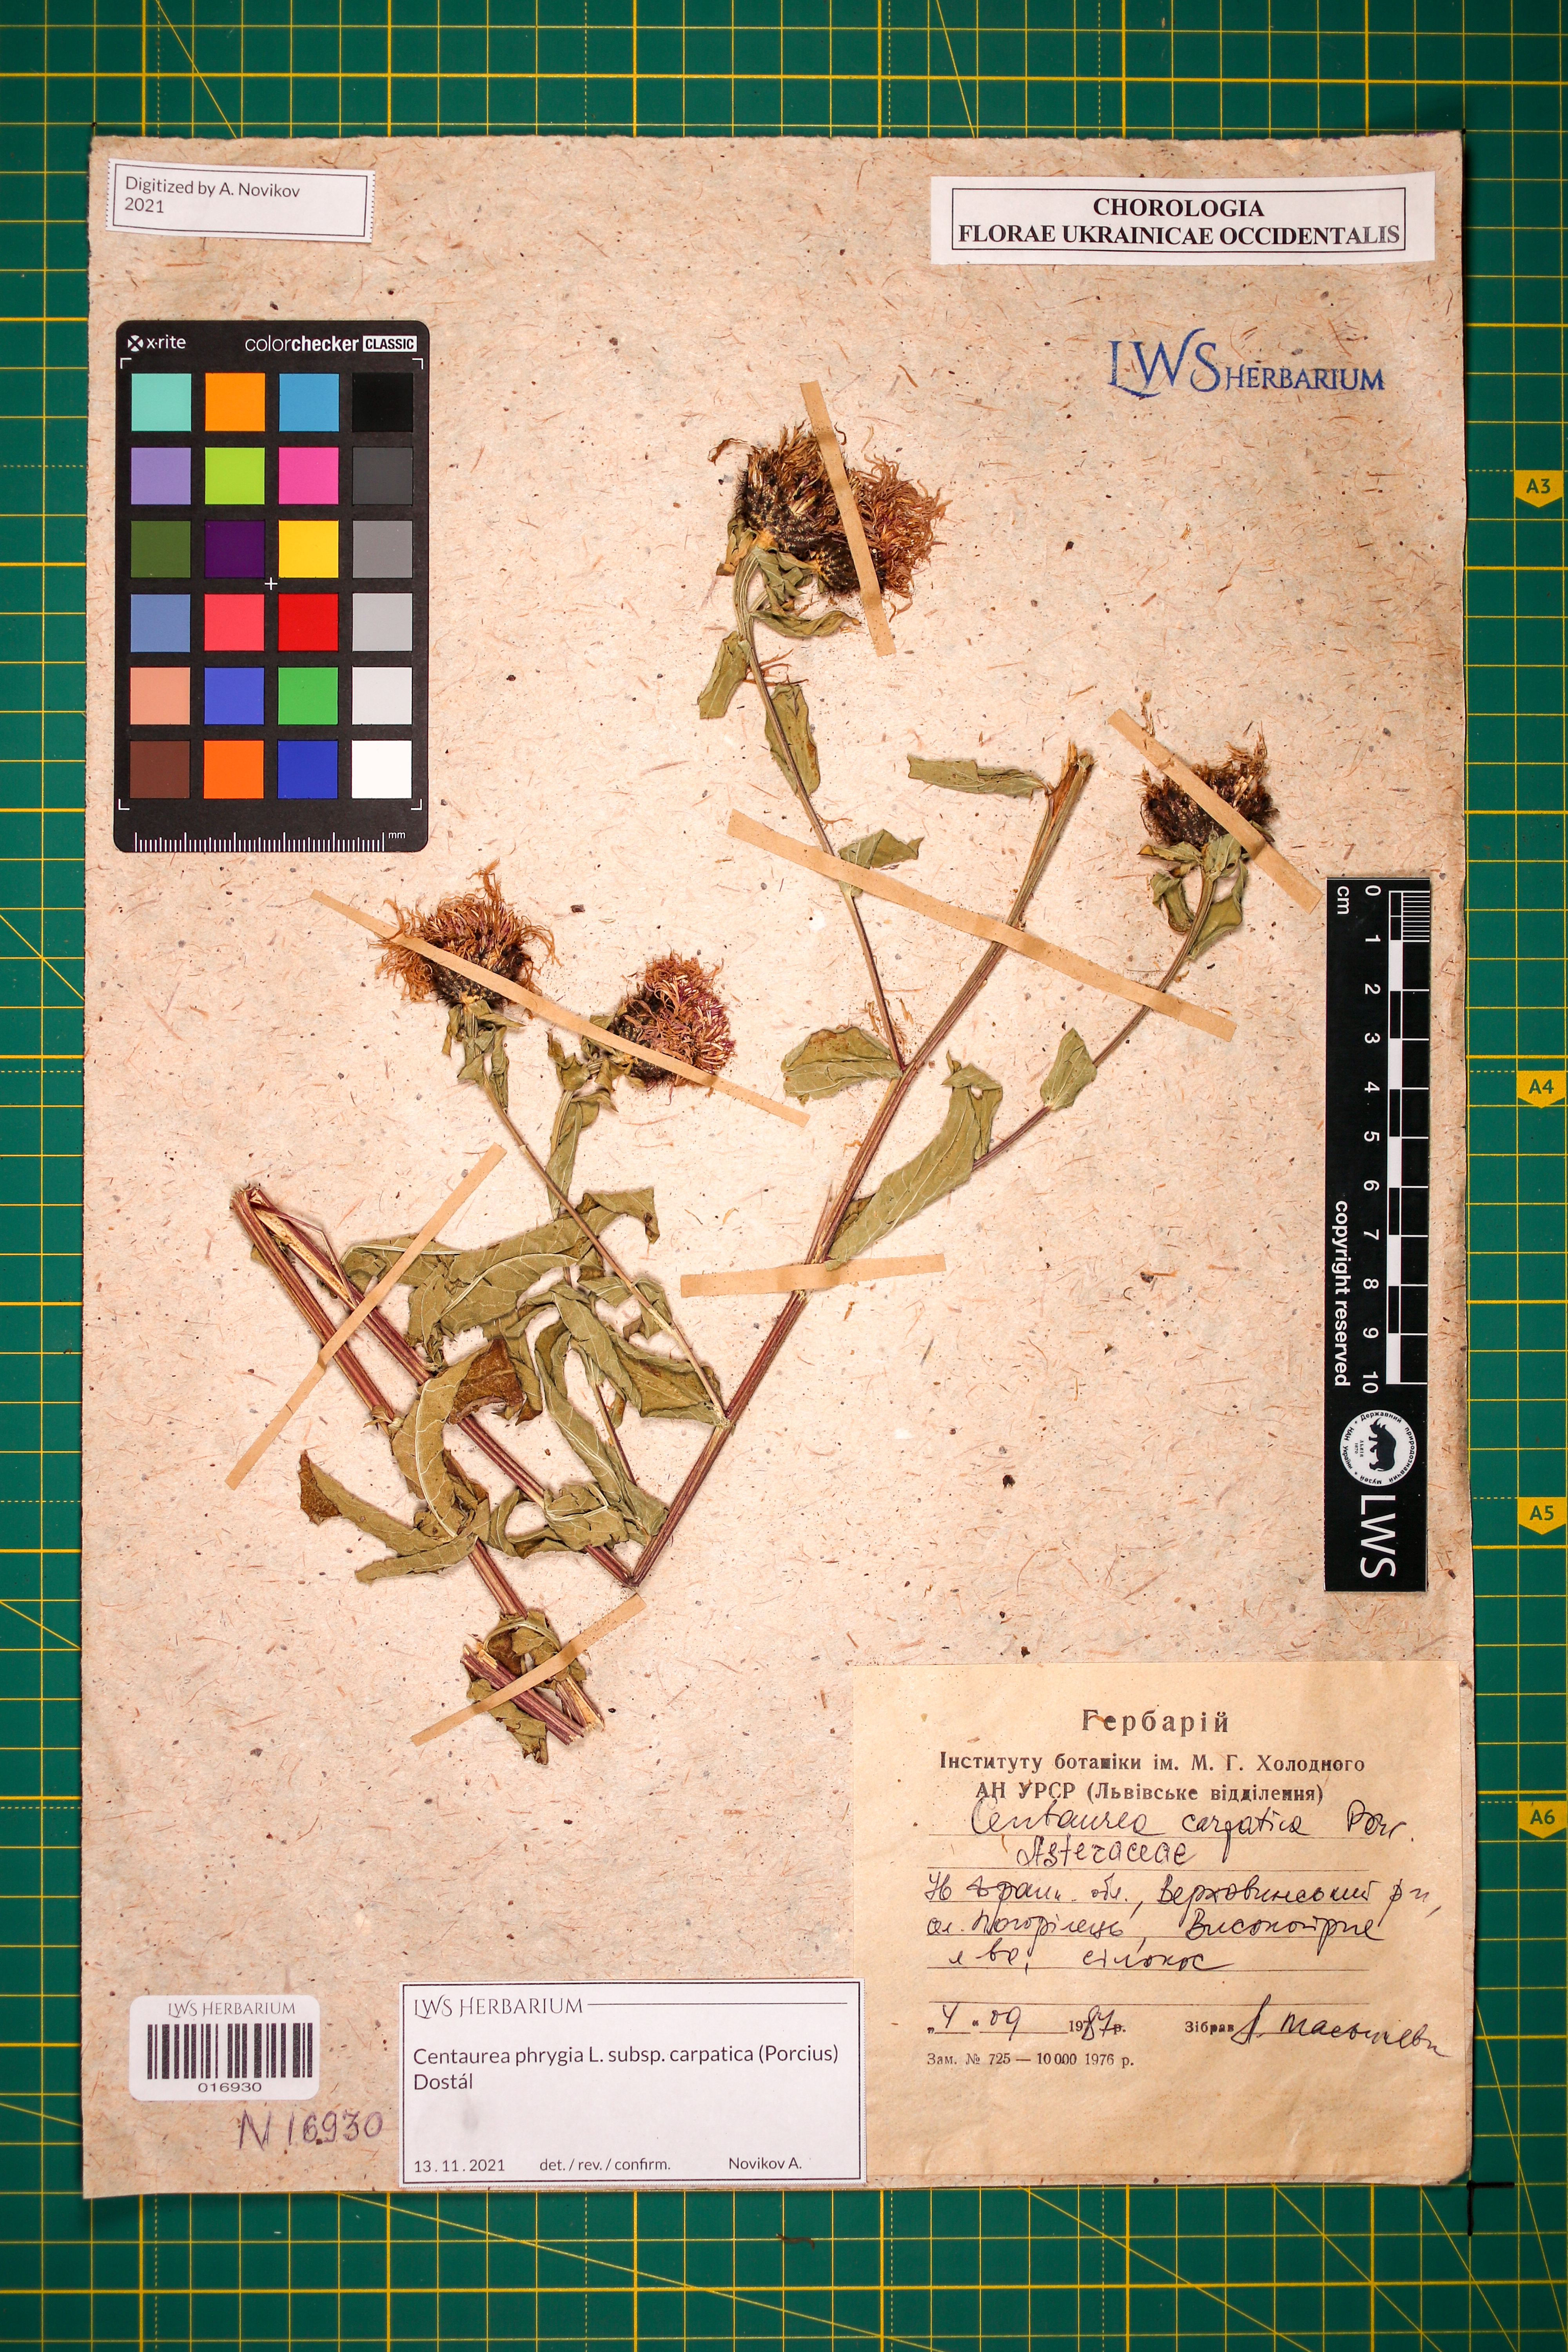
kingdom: Plantae
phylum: Tracheophyta
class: Magnoliopsida
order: Asterales
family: Asteraceae
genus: Centaurea
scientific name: Centaurea phrygia
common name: Wig knapweed
